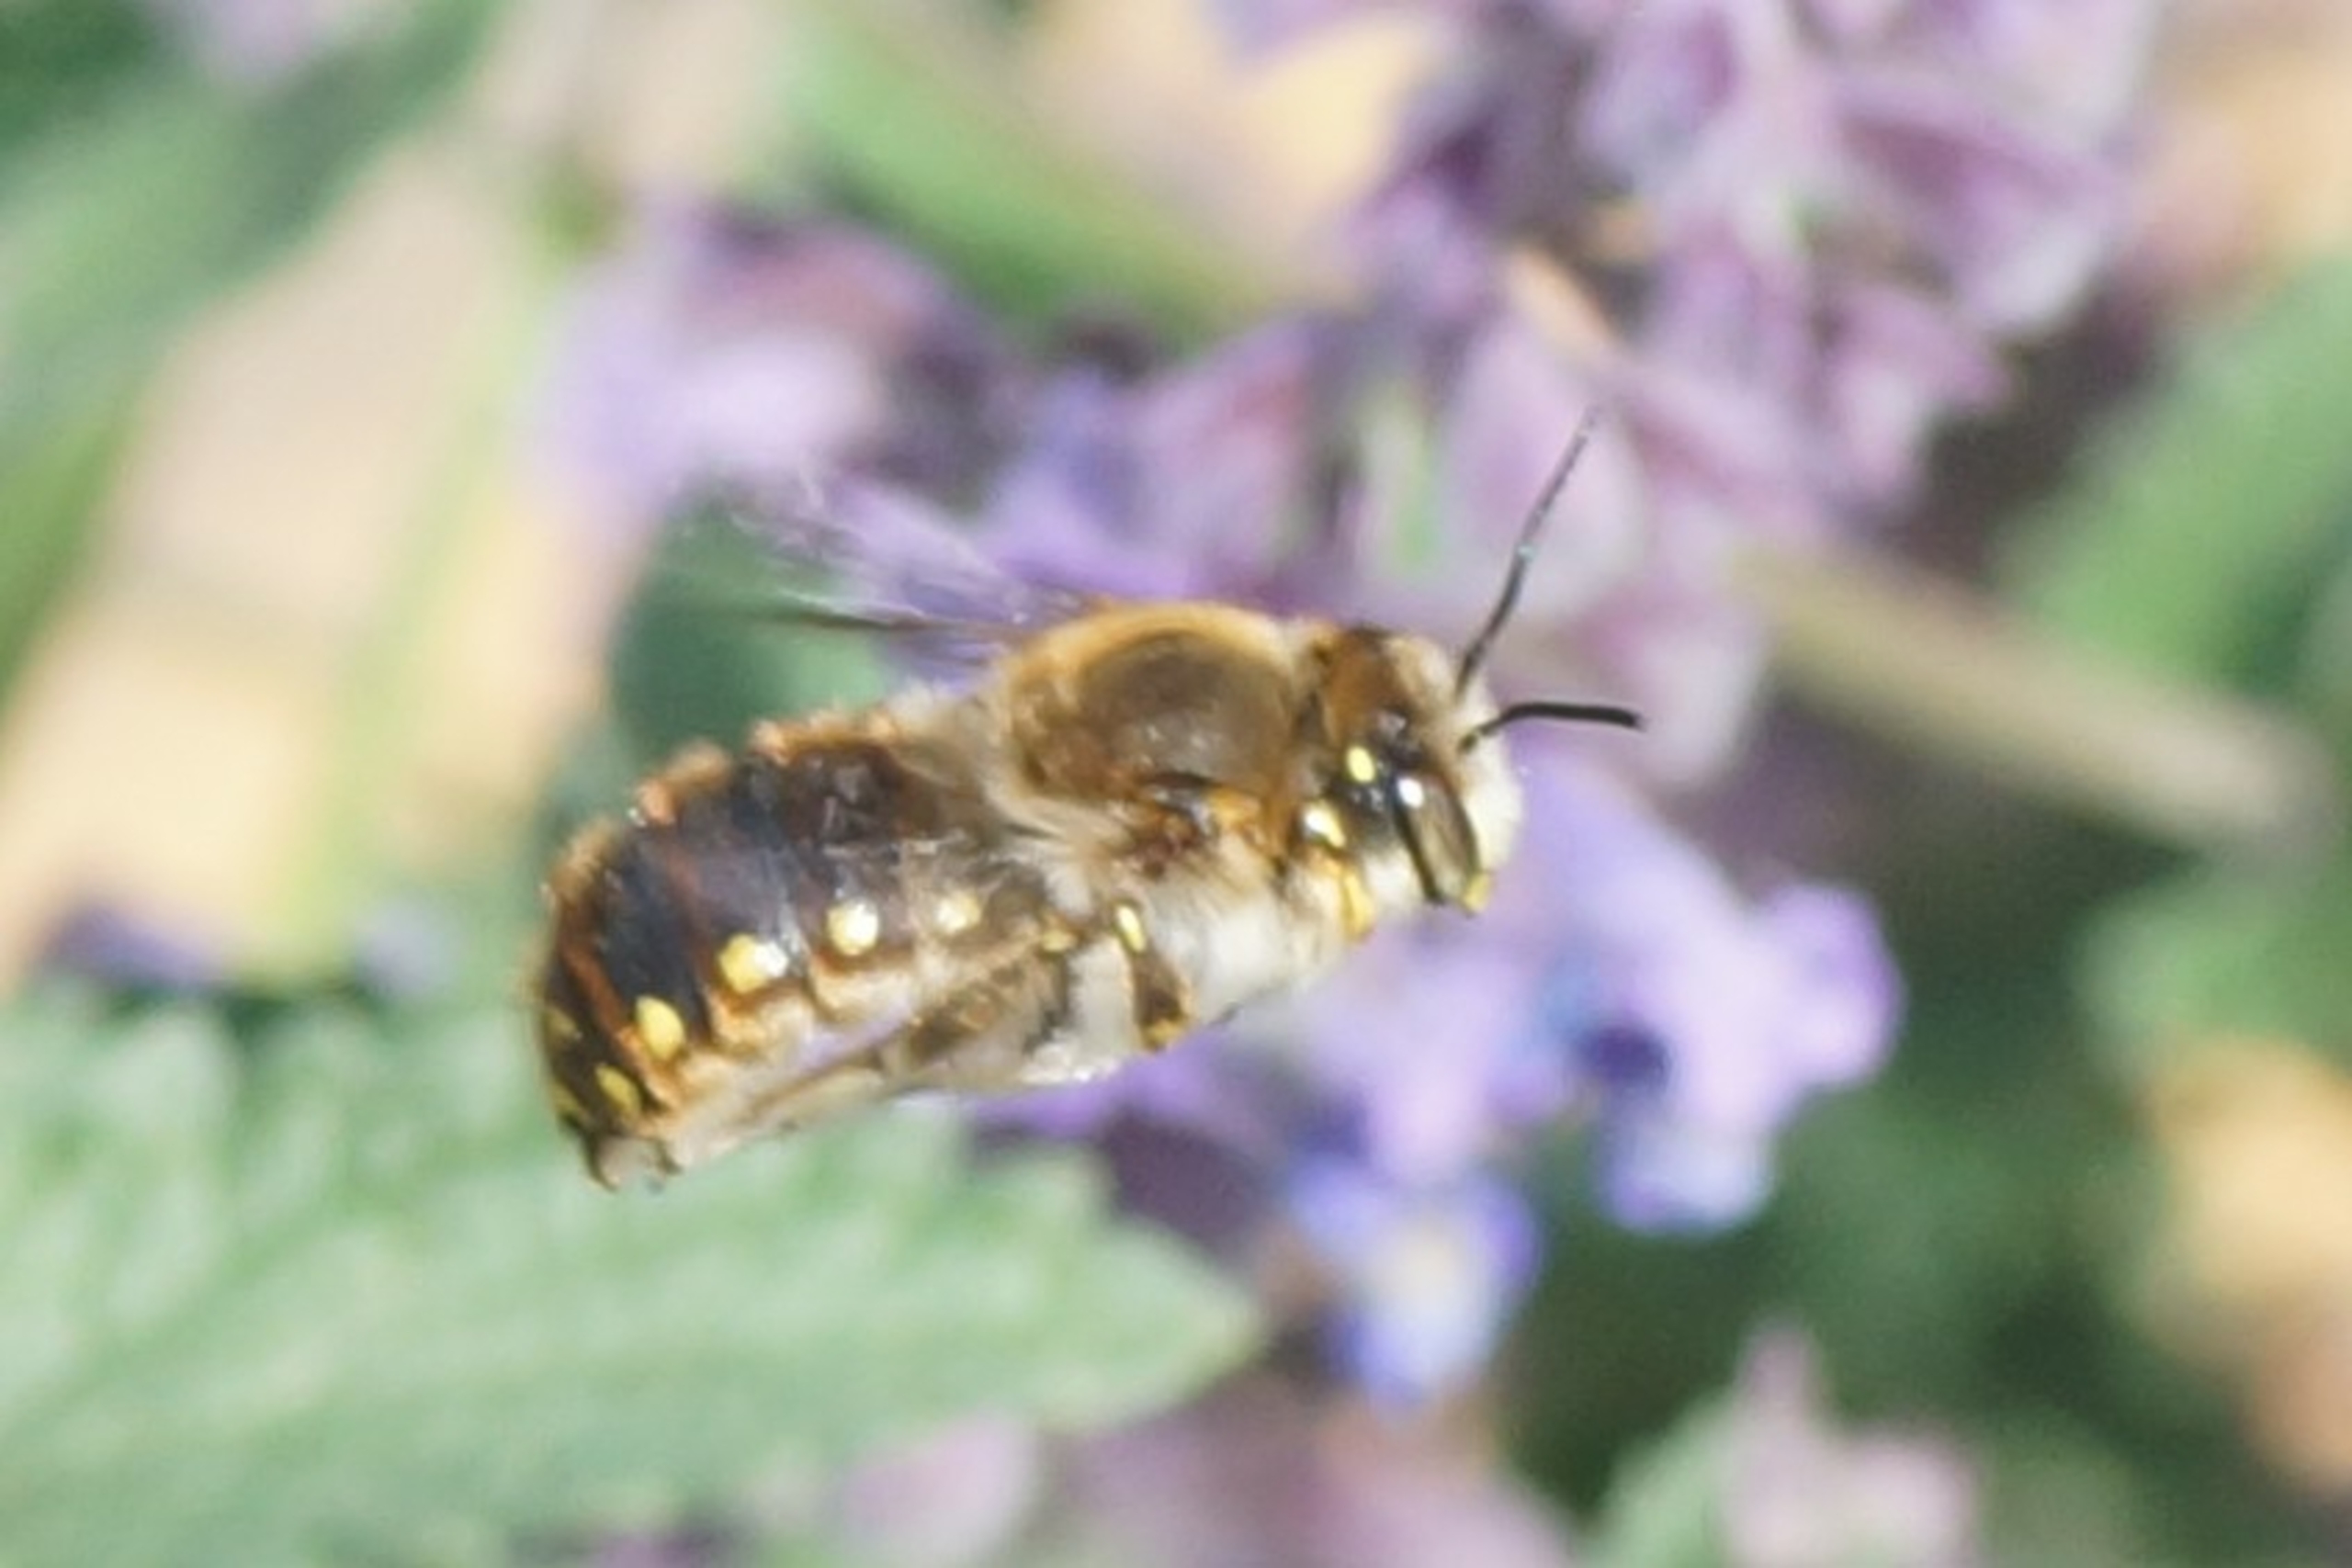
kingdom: Animalia
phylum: Arthropoda
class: Insecta
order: Hymenoptera
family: Megachilidae
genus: Anthidium
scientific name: Anthidium manicatum
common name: Stor uldbi
